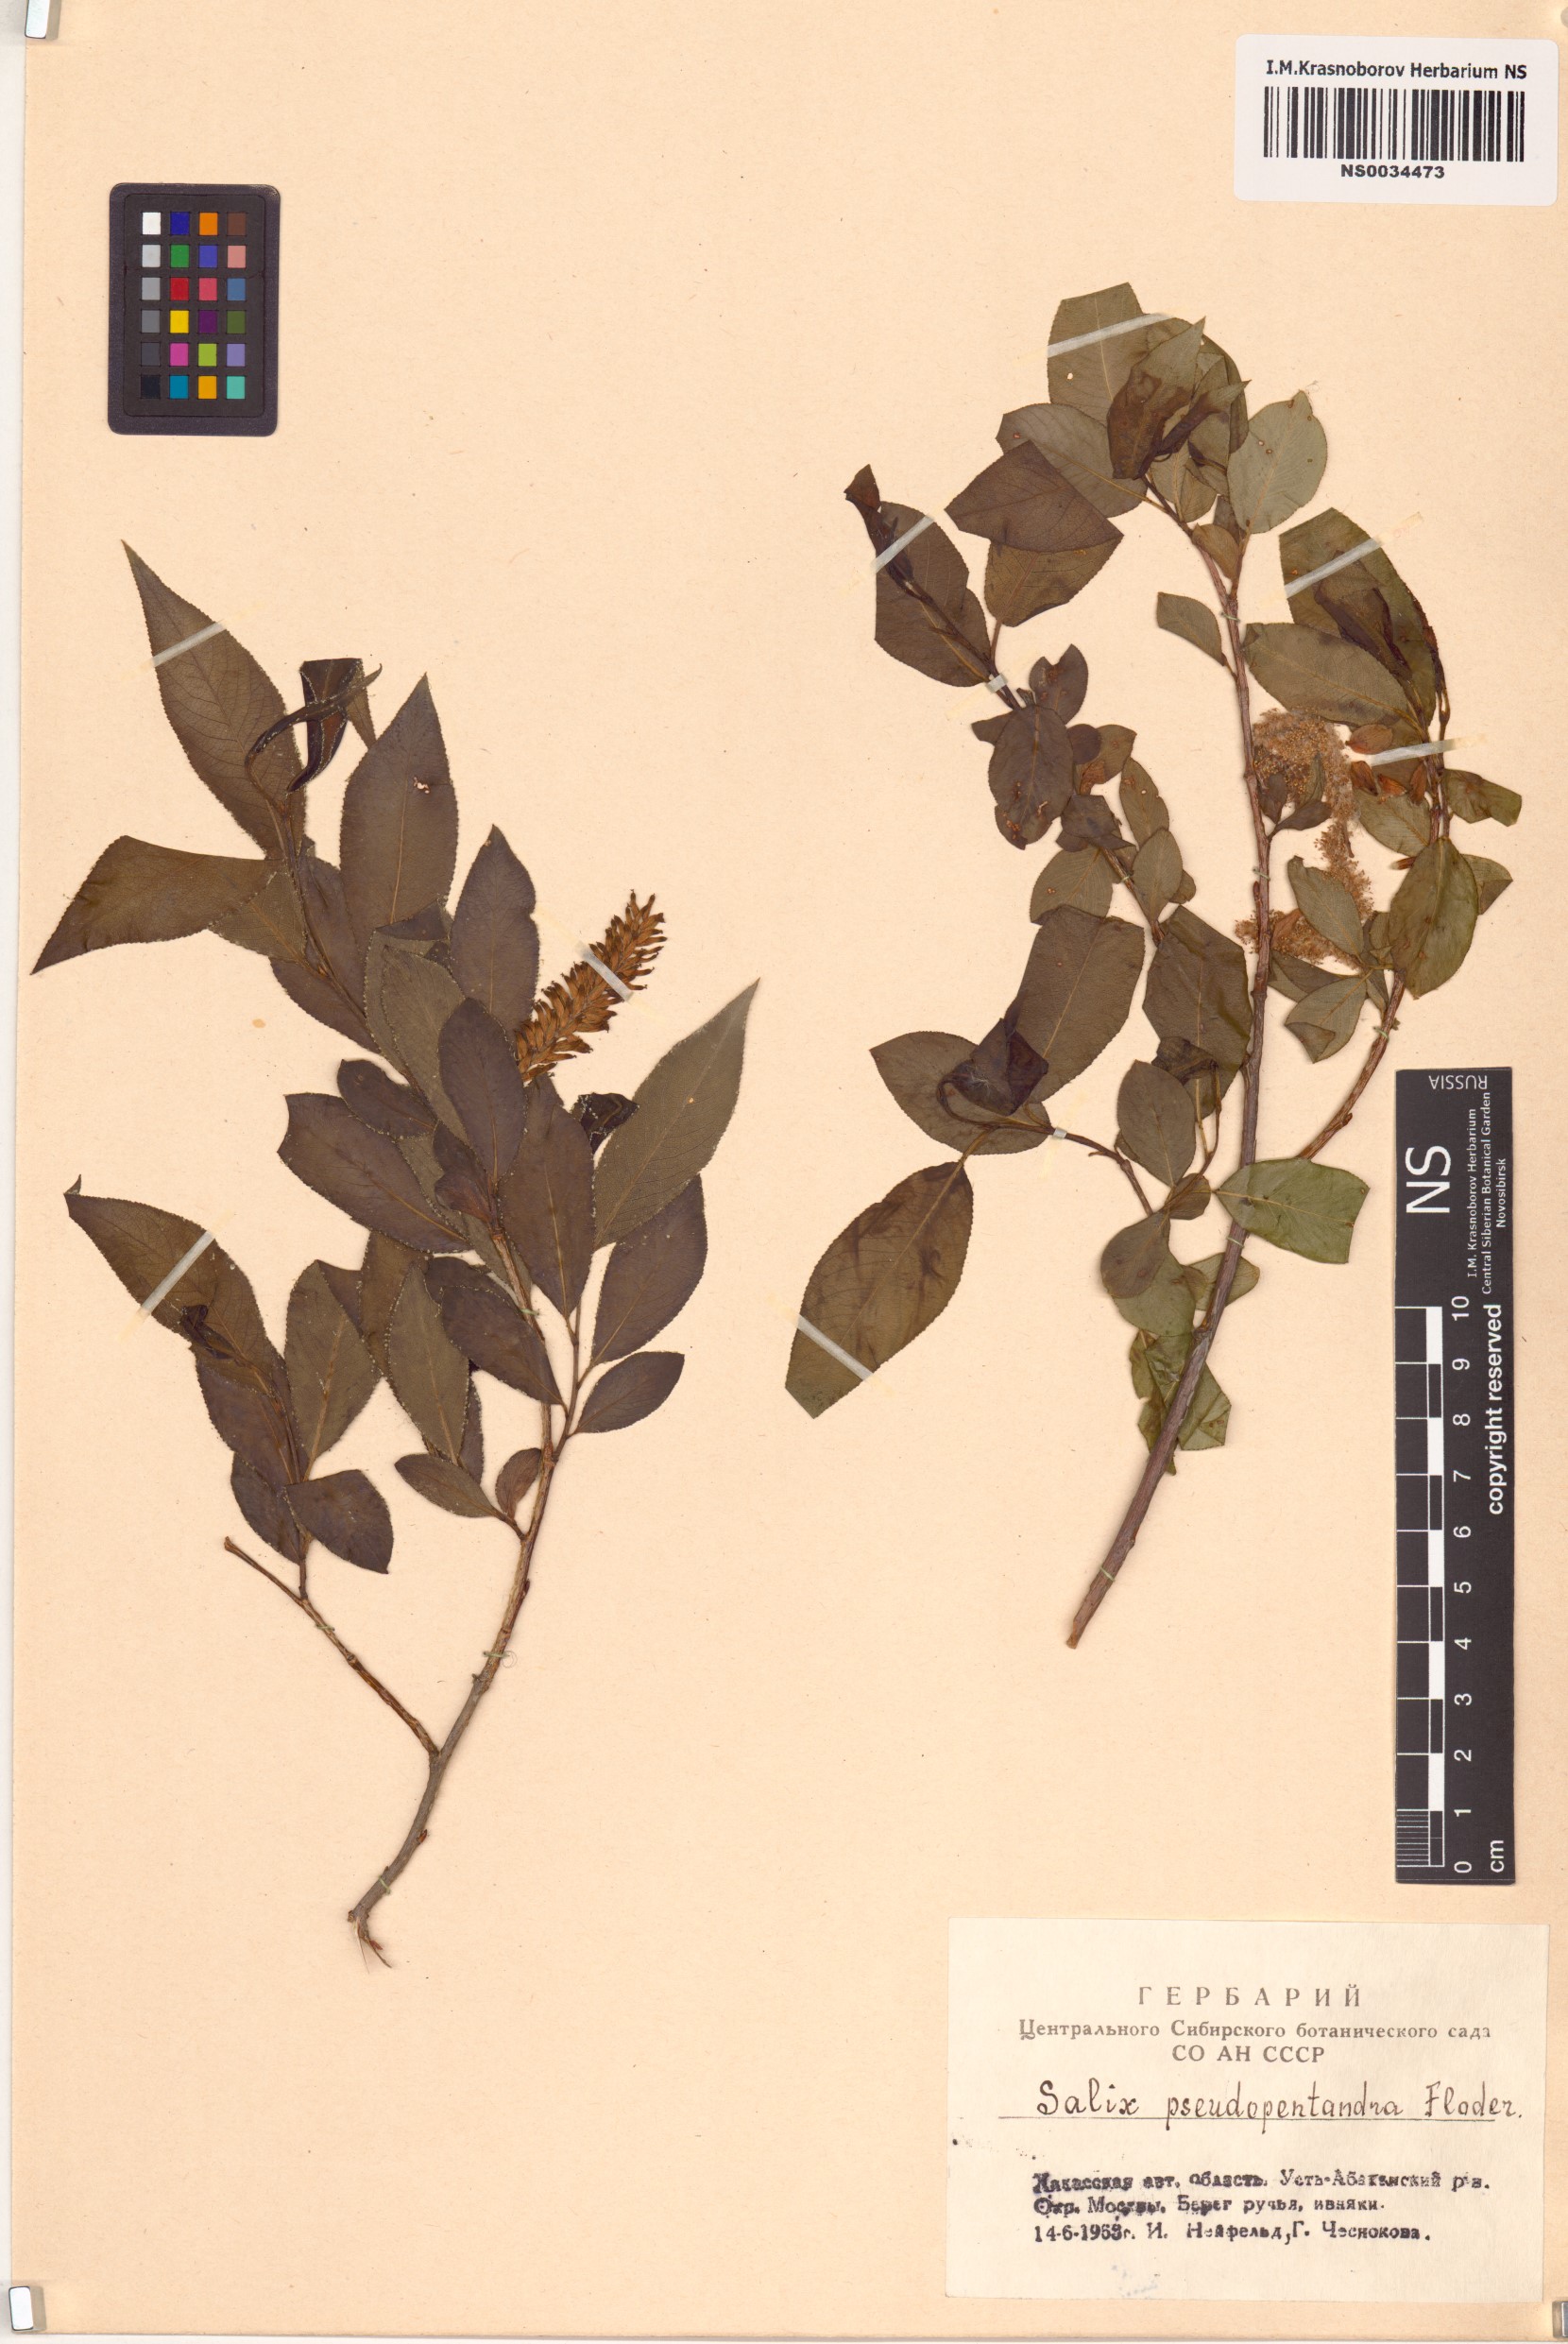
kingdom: Plantae
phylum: Tracheophyta
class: Magnoliopsida
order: Malpighiales
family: Salicaceae
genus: Salix
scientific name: Salix pseudopentandra
